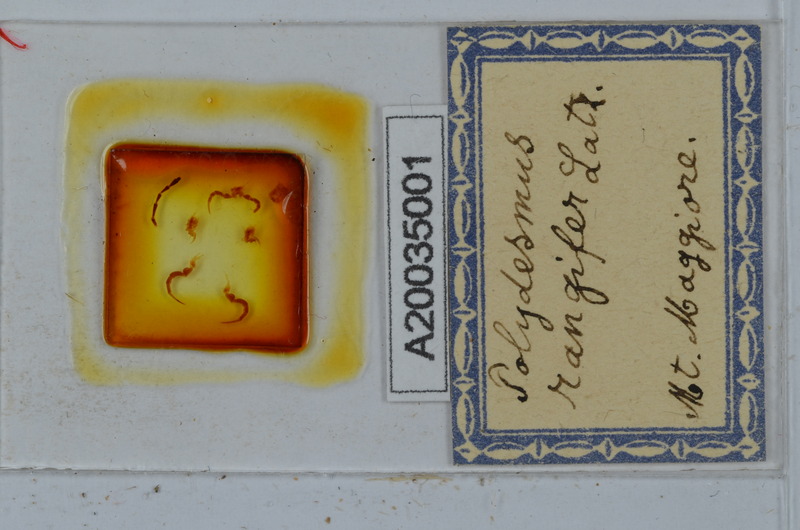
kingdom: Animalia
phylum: Arthropoda
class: Diplopoda
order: Polydesmida
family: Polydesmidae
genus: Polydesmus
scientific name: Polydesmus rangifer
